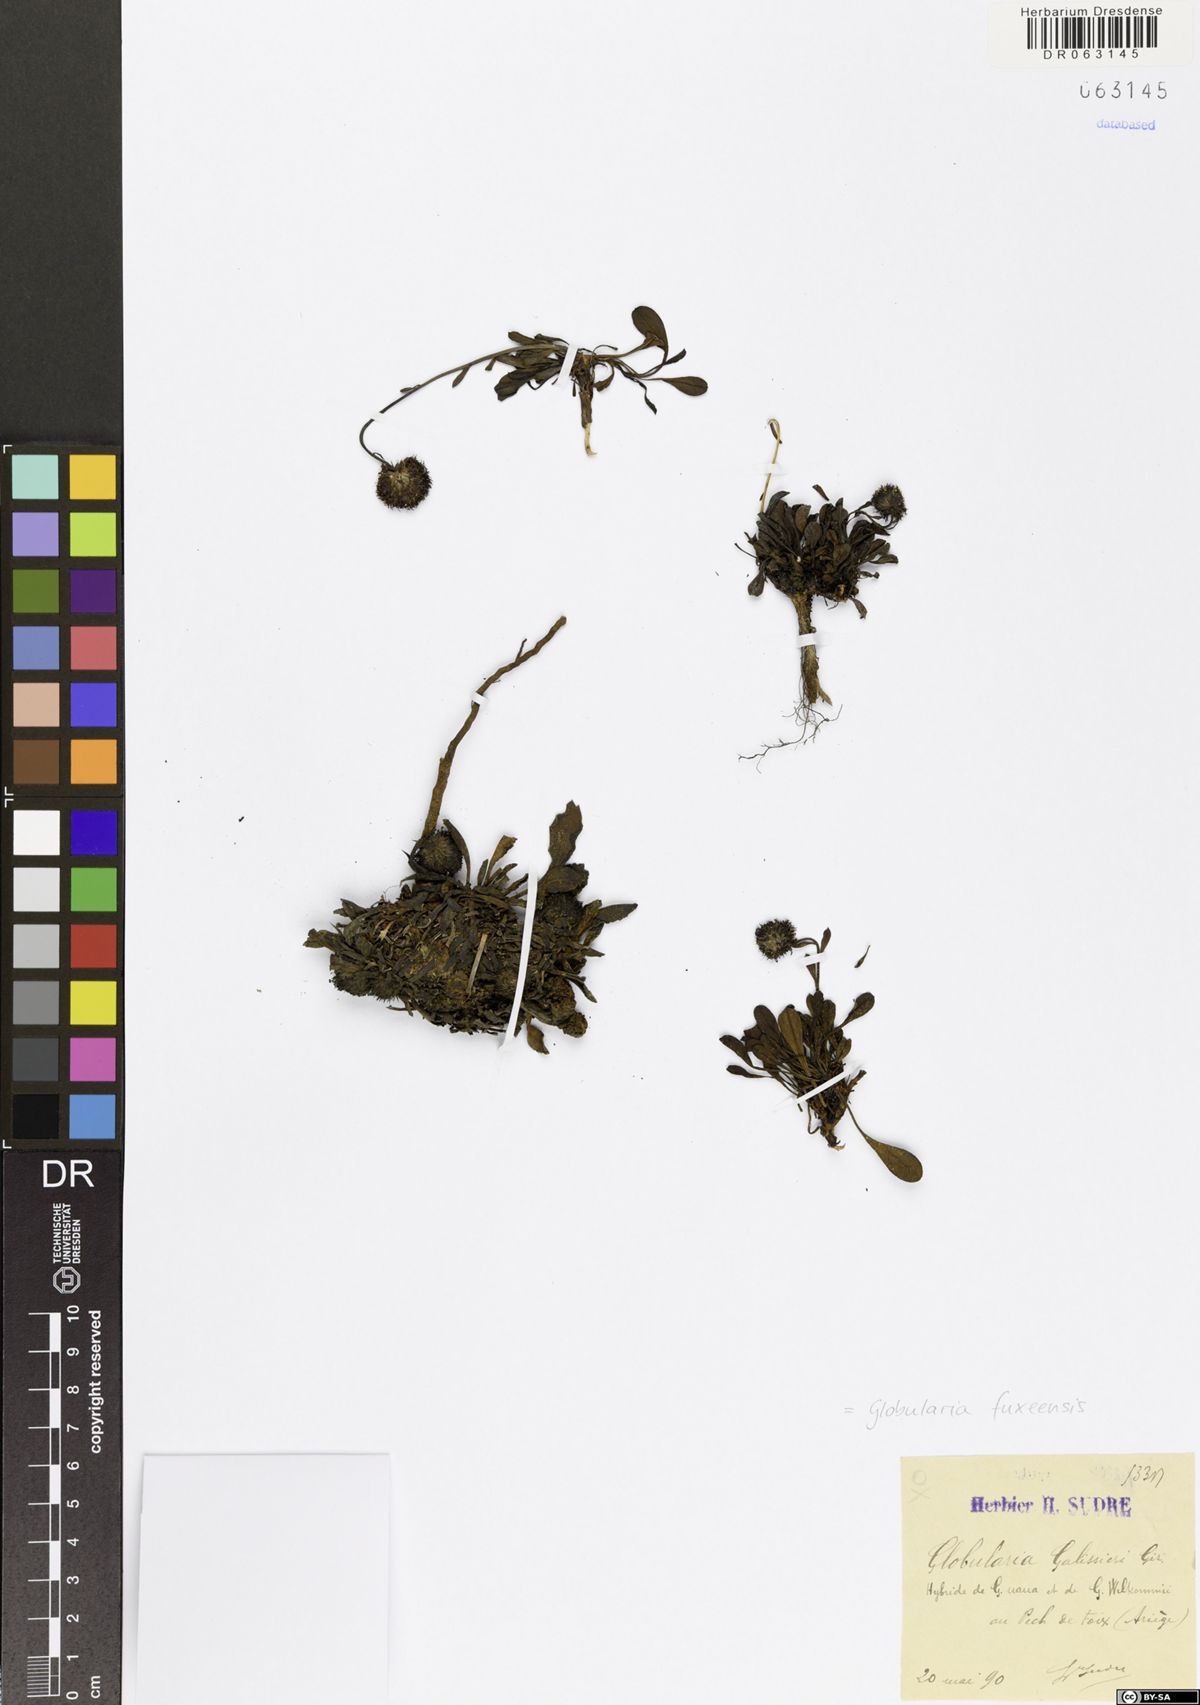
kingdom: Plantae
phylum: Tracheophyta
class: Magnoliopsida
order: Lamiales
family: Plantaginaceae
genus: Globularia
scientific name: Globularia fuxeensis
